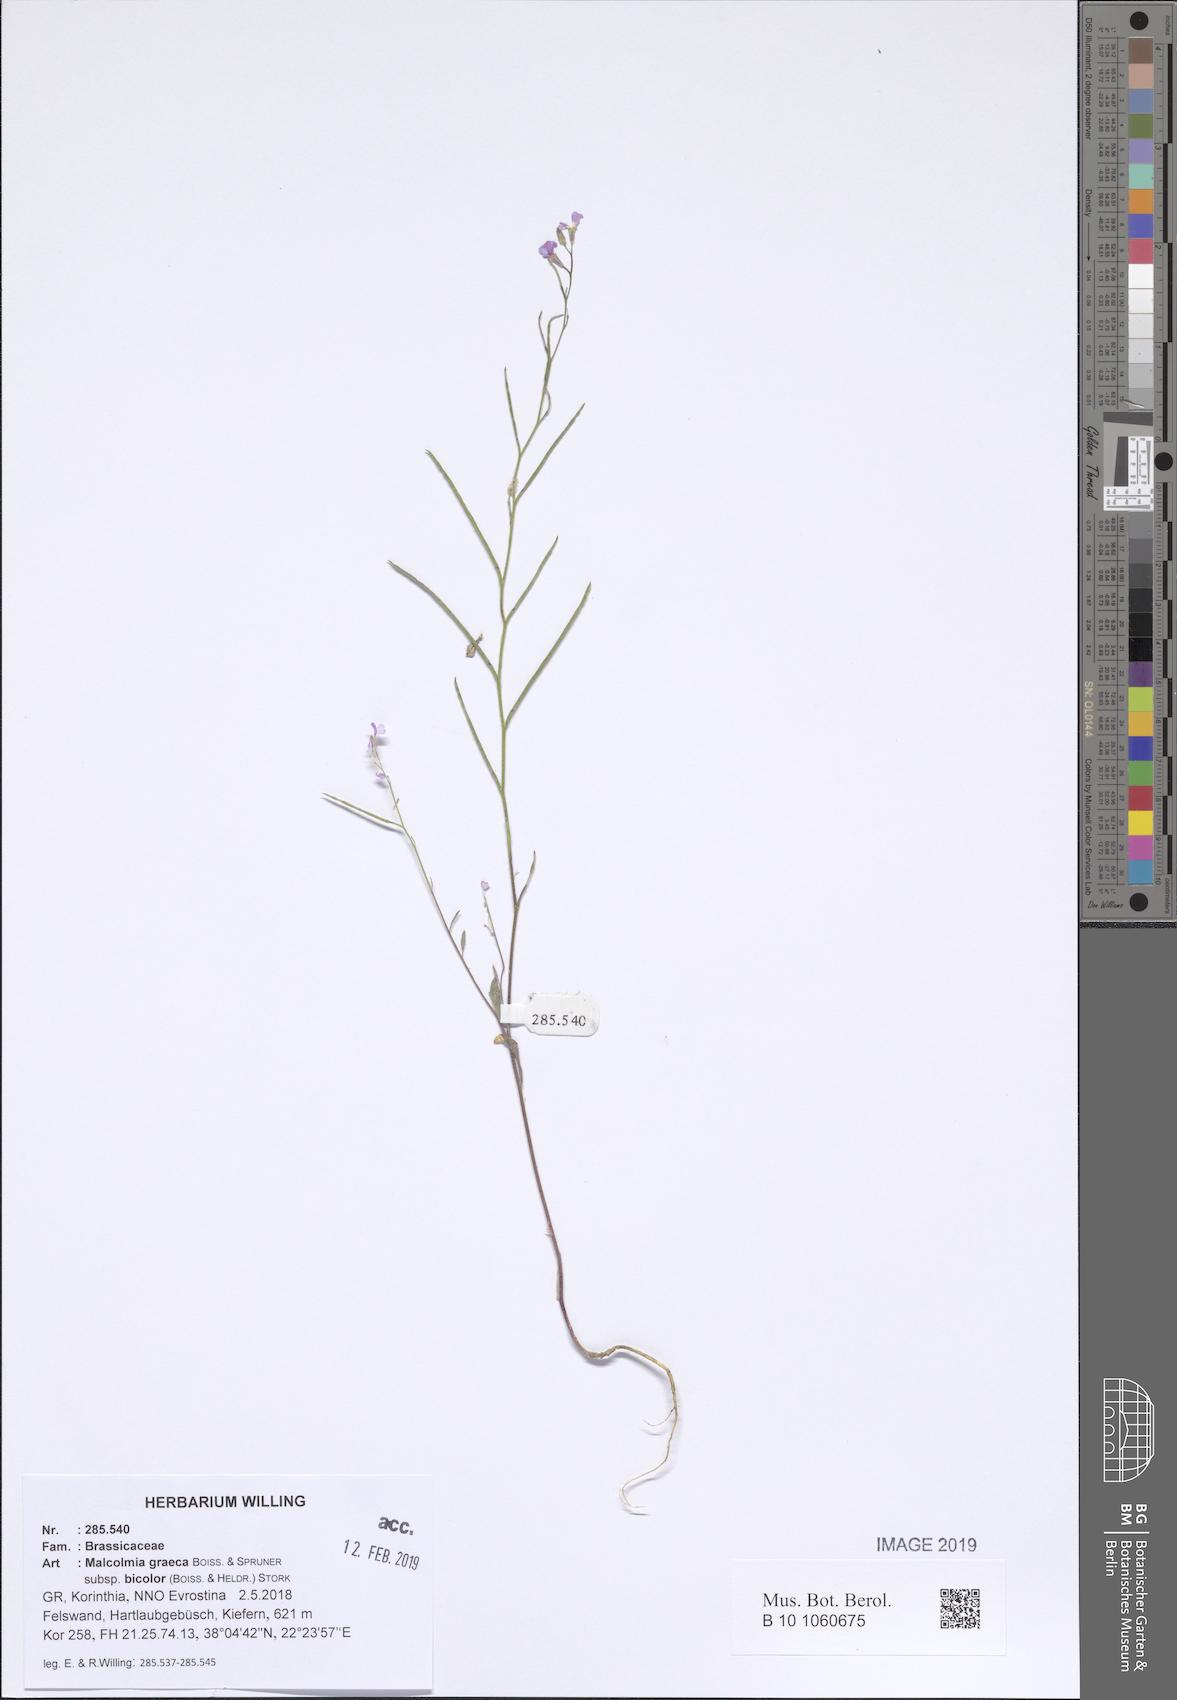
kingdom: Plantae
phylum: Tracheophyta
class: Magnoliopsida
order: Brassicales
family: Brassicaceae
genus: Malcolmia
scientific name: Malcolmia graeca
